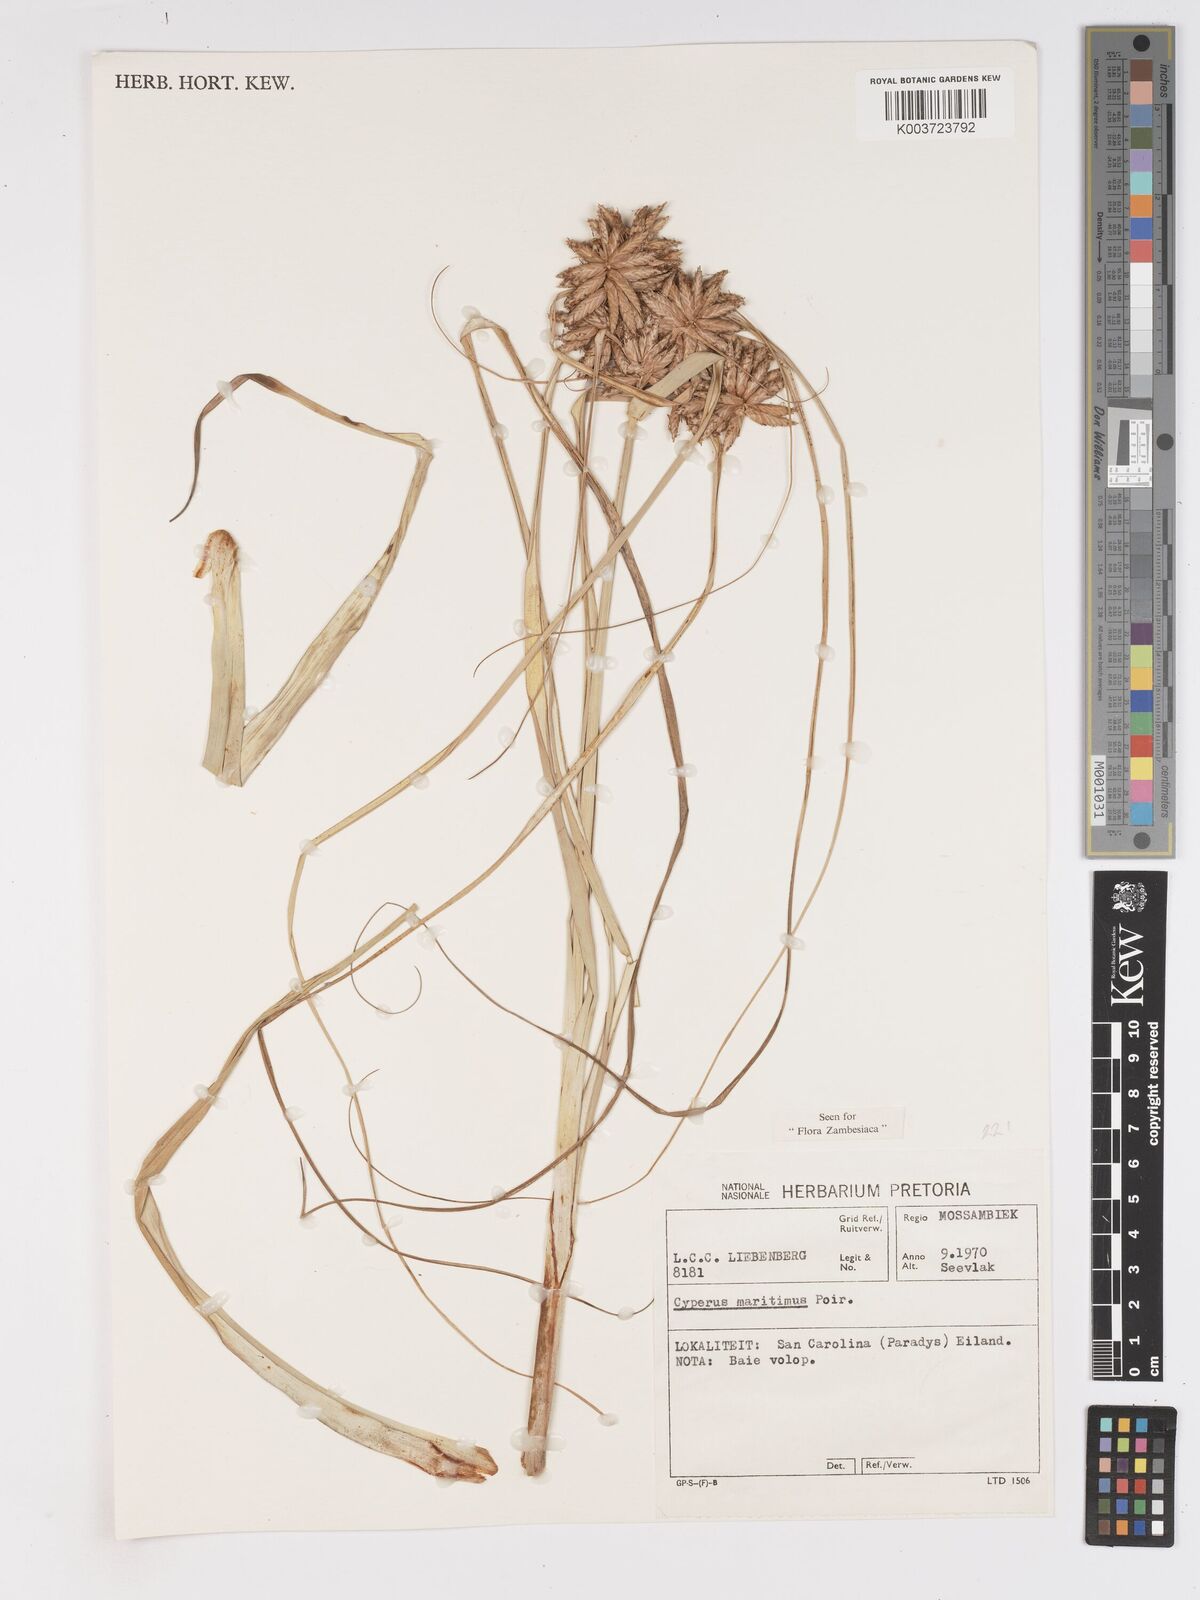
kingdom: Plantae
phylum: Tracheophyta
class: Liliopsida
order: Poales
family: Cyperaceae
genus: Cyperus
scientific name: Cyperus crassipes
